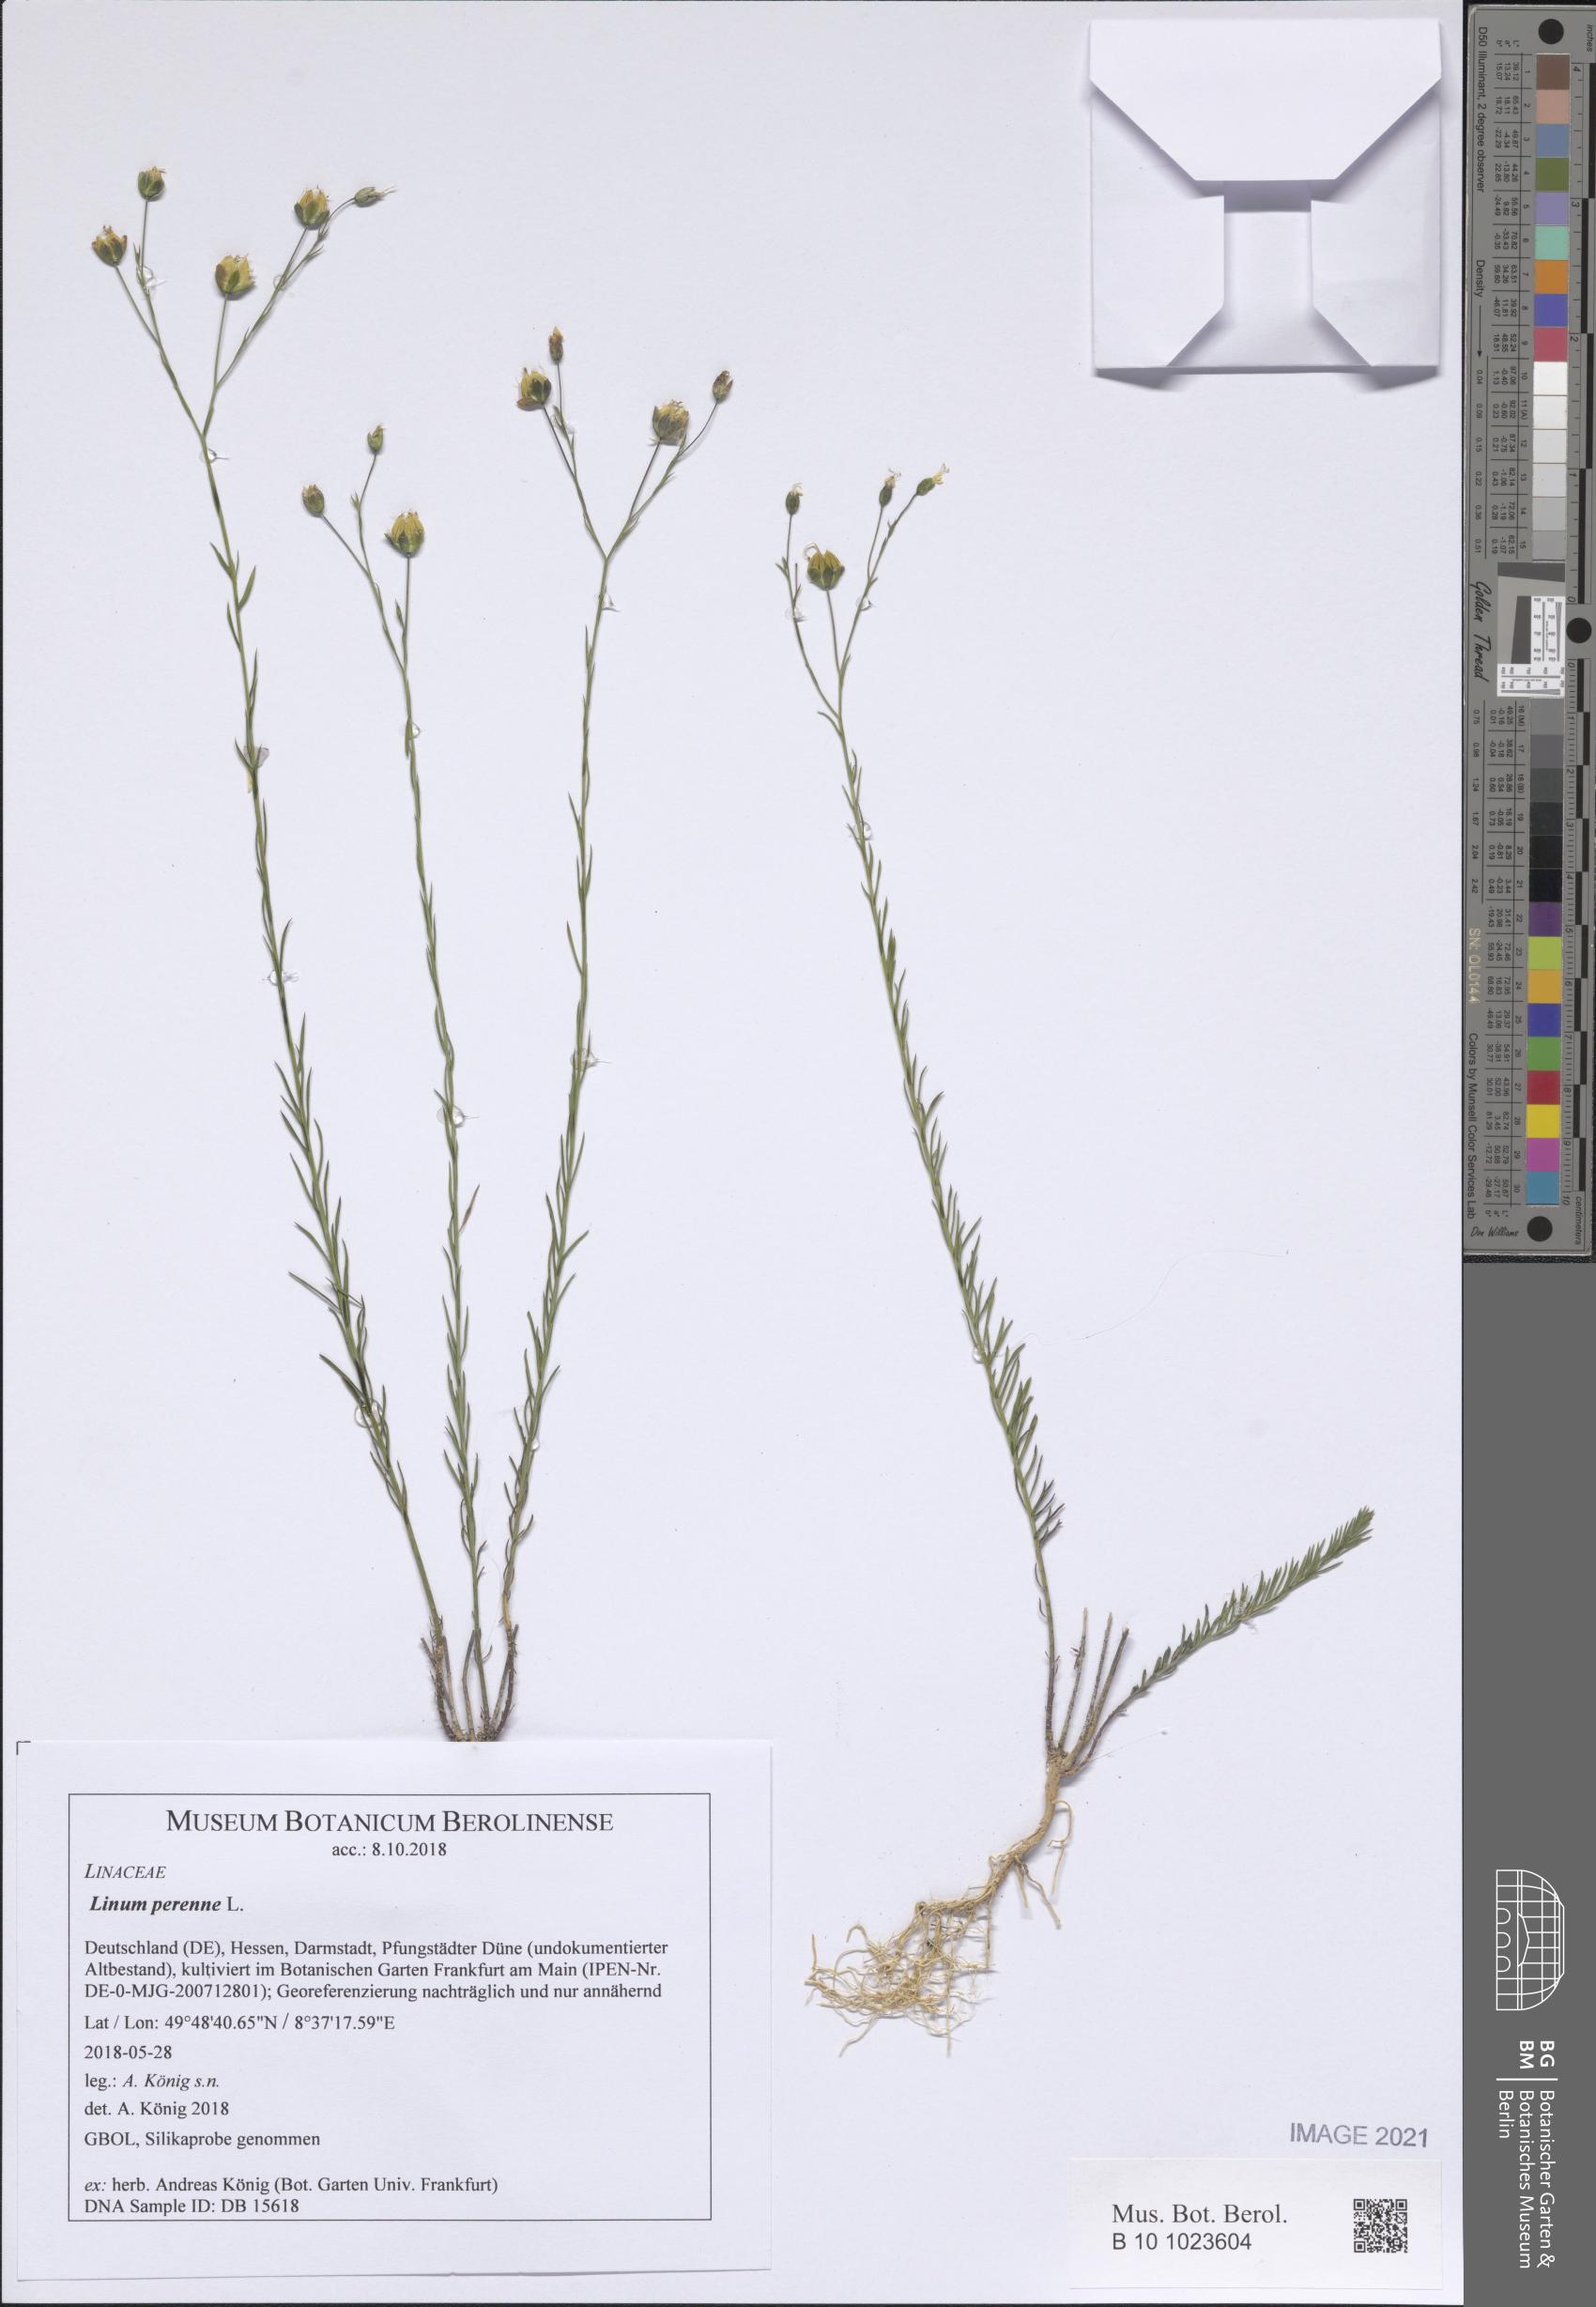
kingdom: Plantae
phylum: Tracheophyta
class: Magnoliopsida
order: Malpighiales
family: Linaceae
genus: Linum
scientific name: Linum perenne
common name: Blue flax
